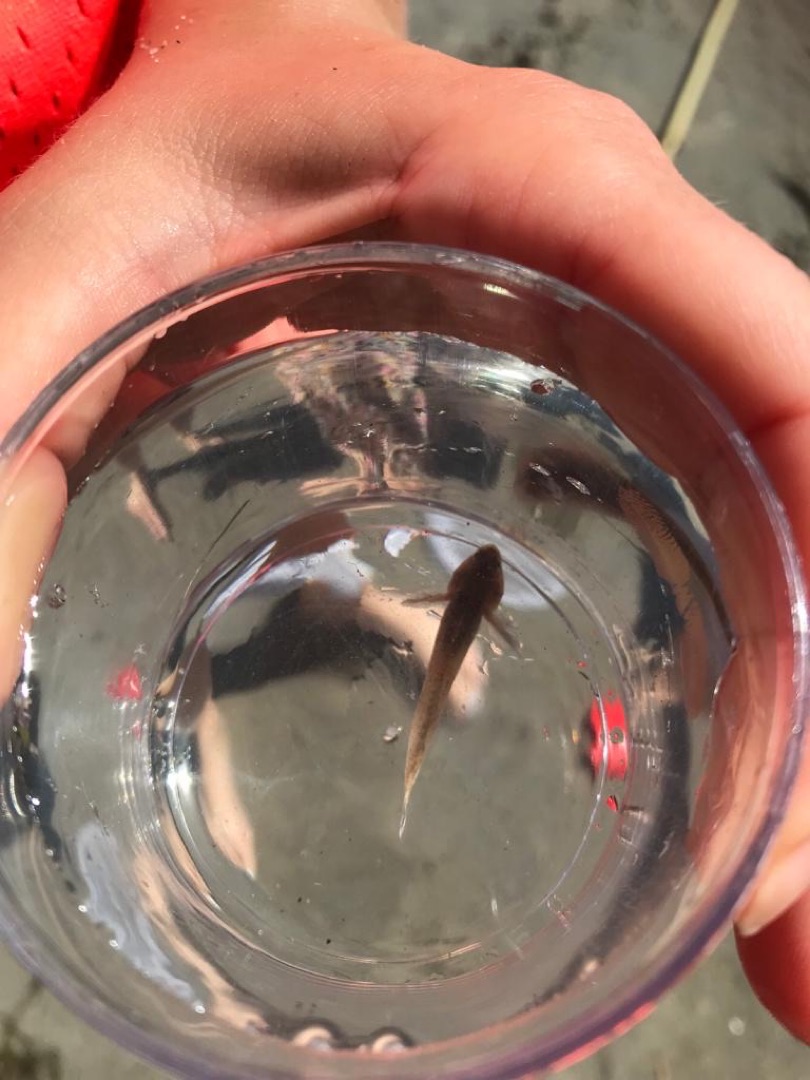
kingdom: Animalia
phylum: Chordata
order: Perciformes
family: Gobiidae
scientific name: Gobiidae
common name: Kutlingefamilien
